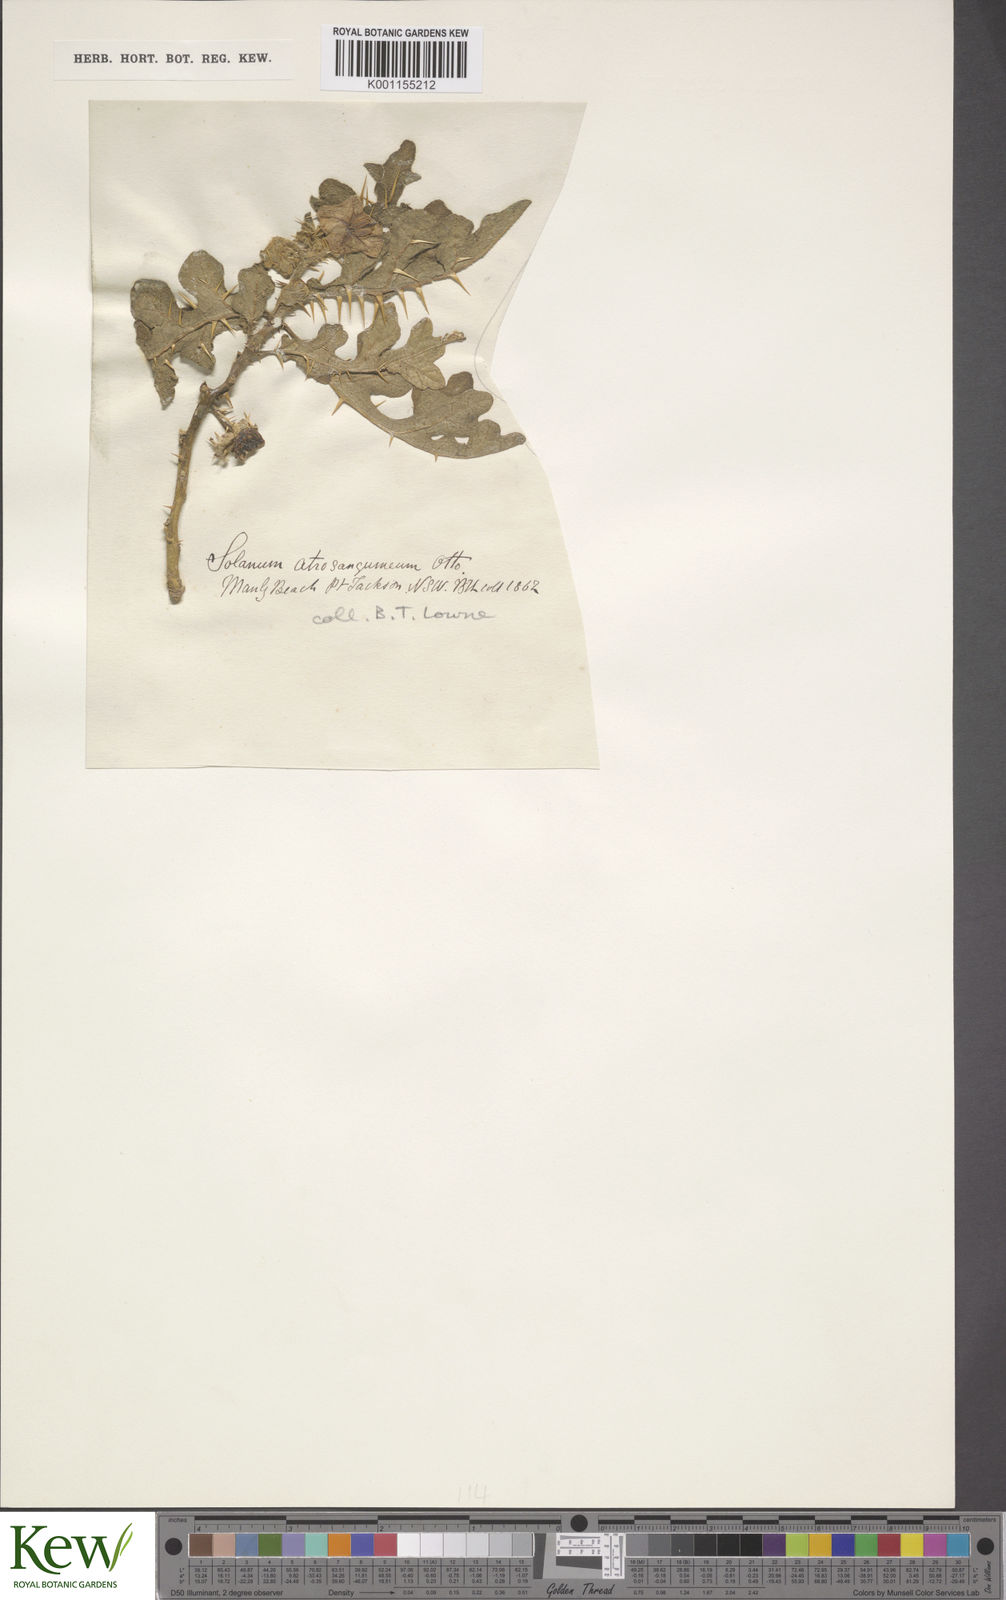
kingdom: Plantae
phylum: Tracheophyta
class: Magnoliopsida
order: Solanales
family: Solanaceae
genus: Solanum
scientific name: Solanum atropurpureum
